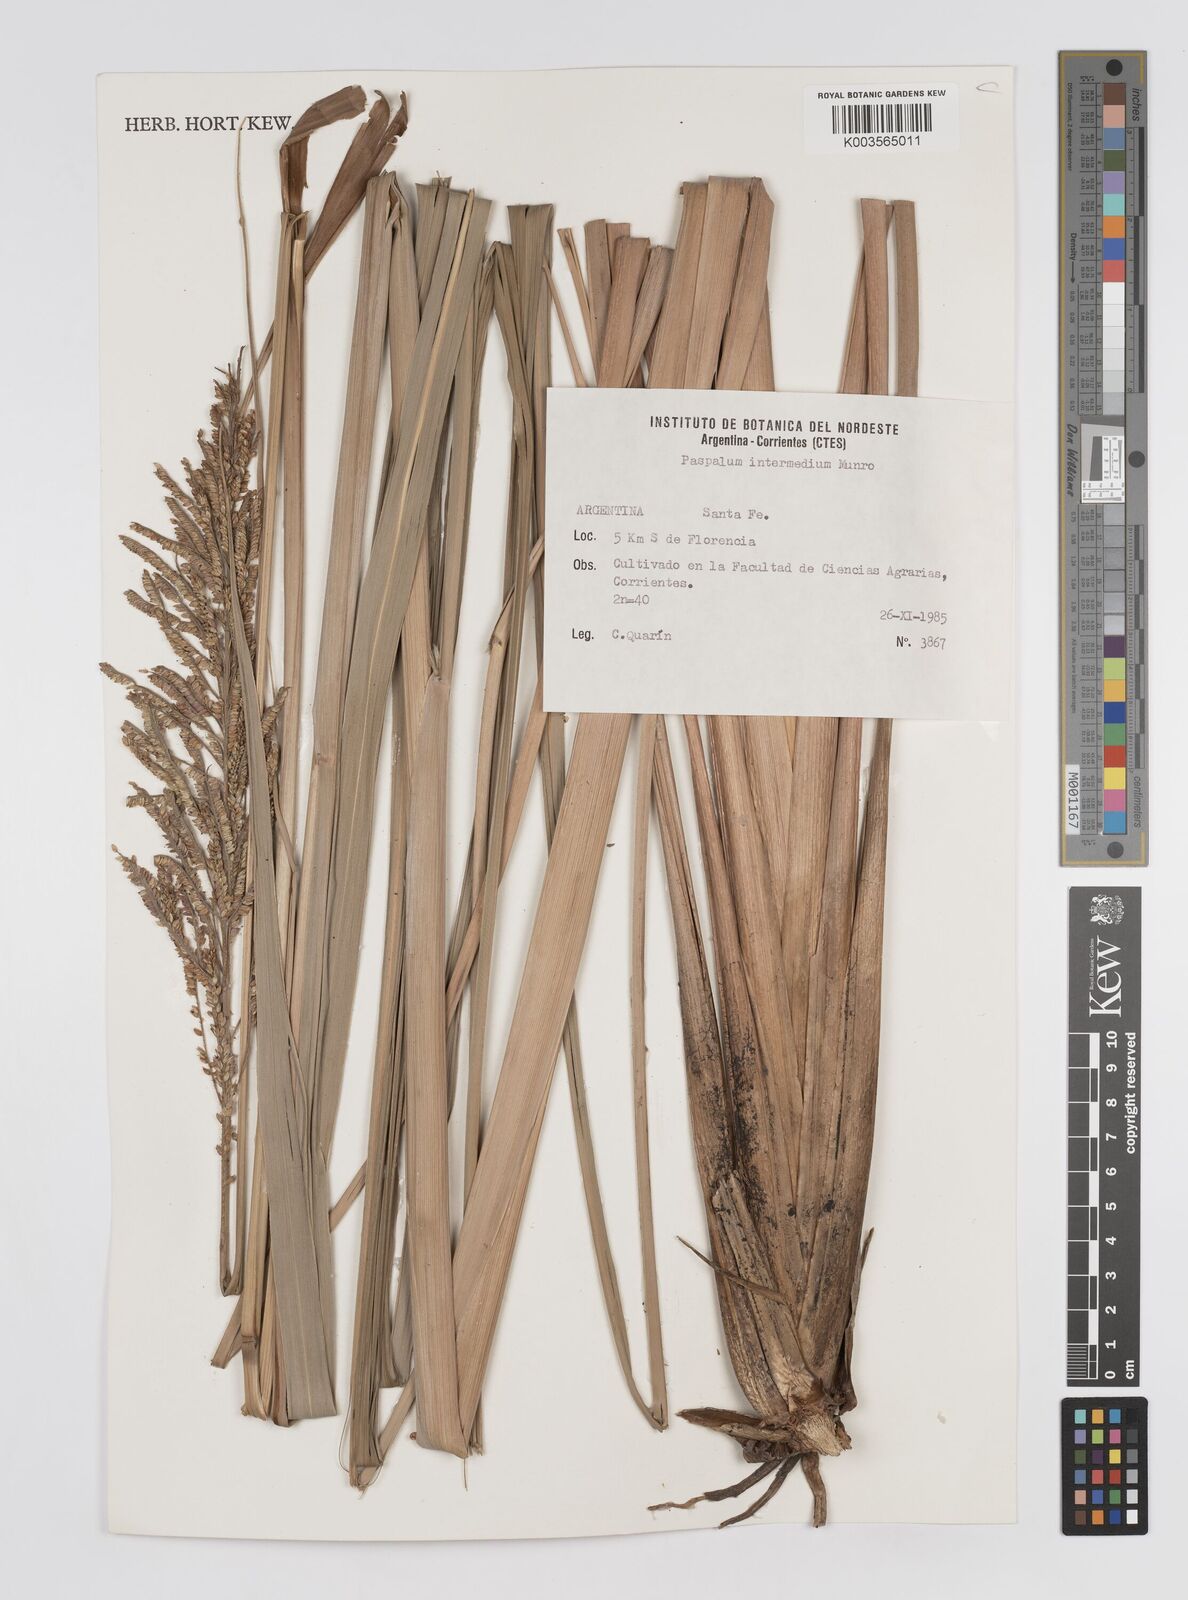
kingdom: Plantae
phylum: Tracheophyta
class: Liliopsida
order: Poales
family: Poaceae
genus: Paspalum
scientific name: Paspalum intermedium
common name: Intermediate paspalum
